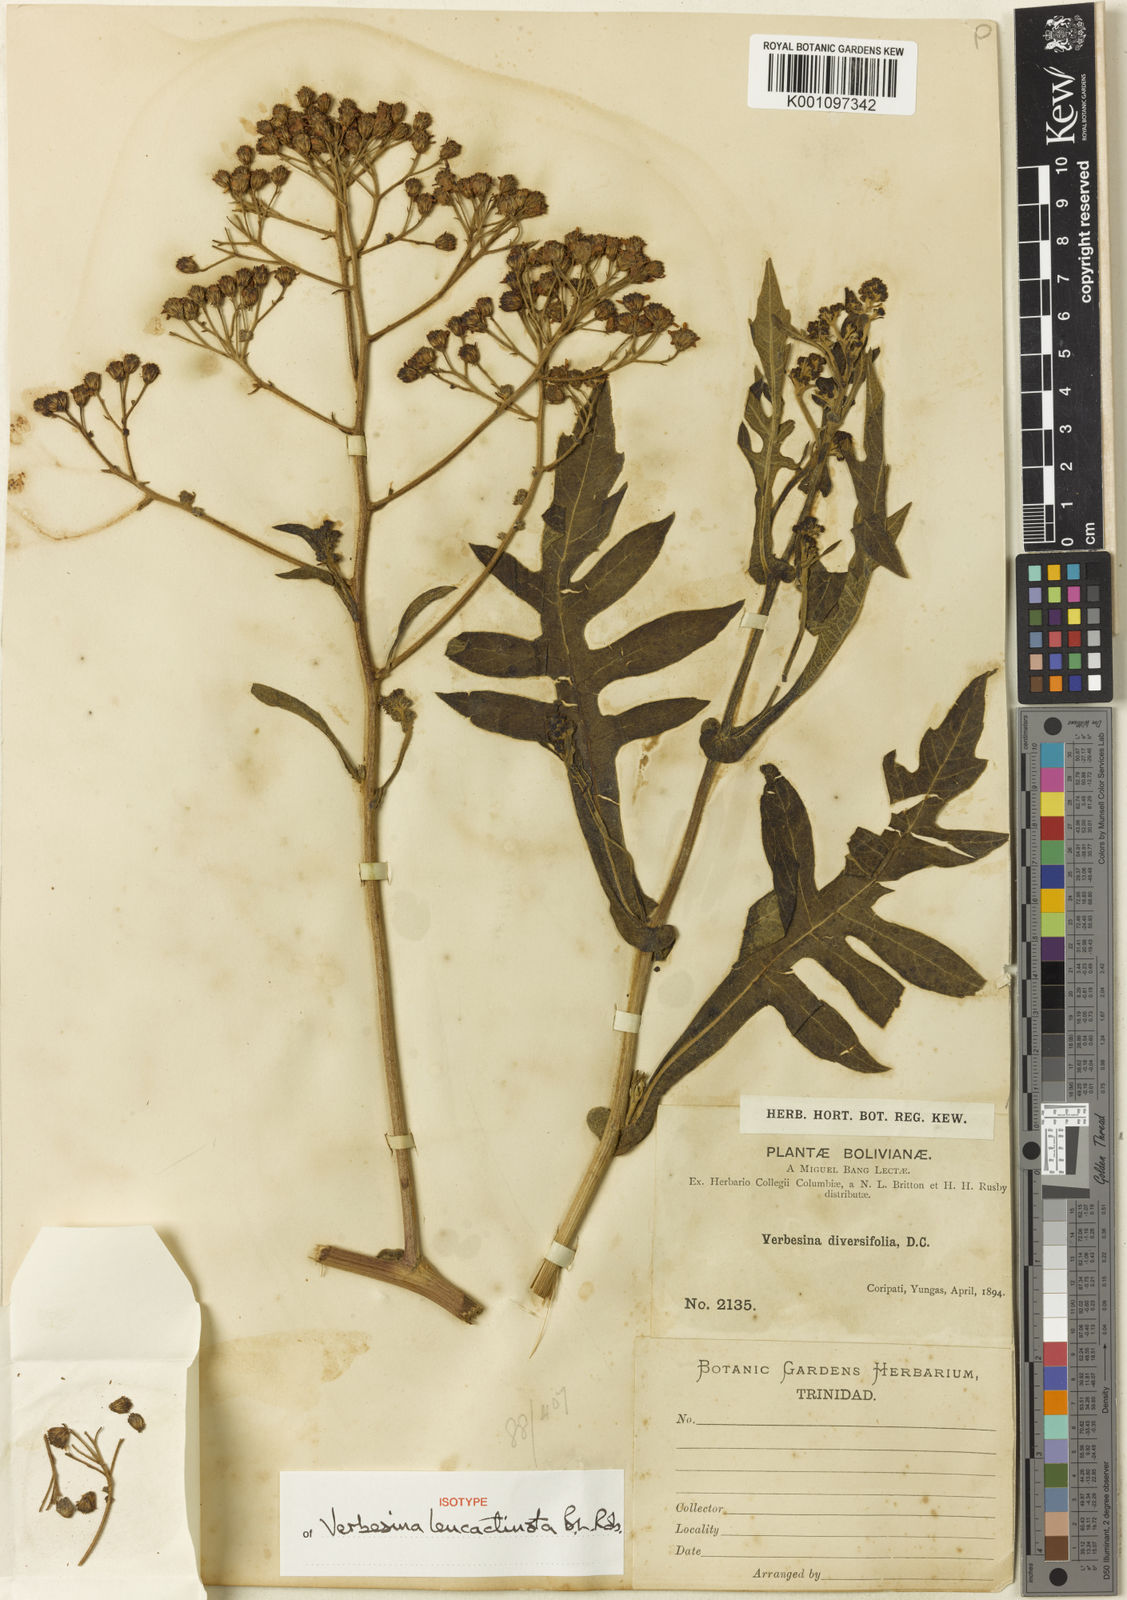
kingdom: Plantae
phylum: Tracheophyta
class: Magnoliopsida
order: Asterales
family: Asteraceae
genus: Verbesina
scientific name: Verbesina leucactinota
